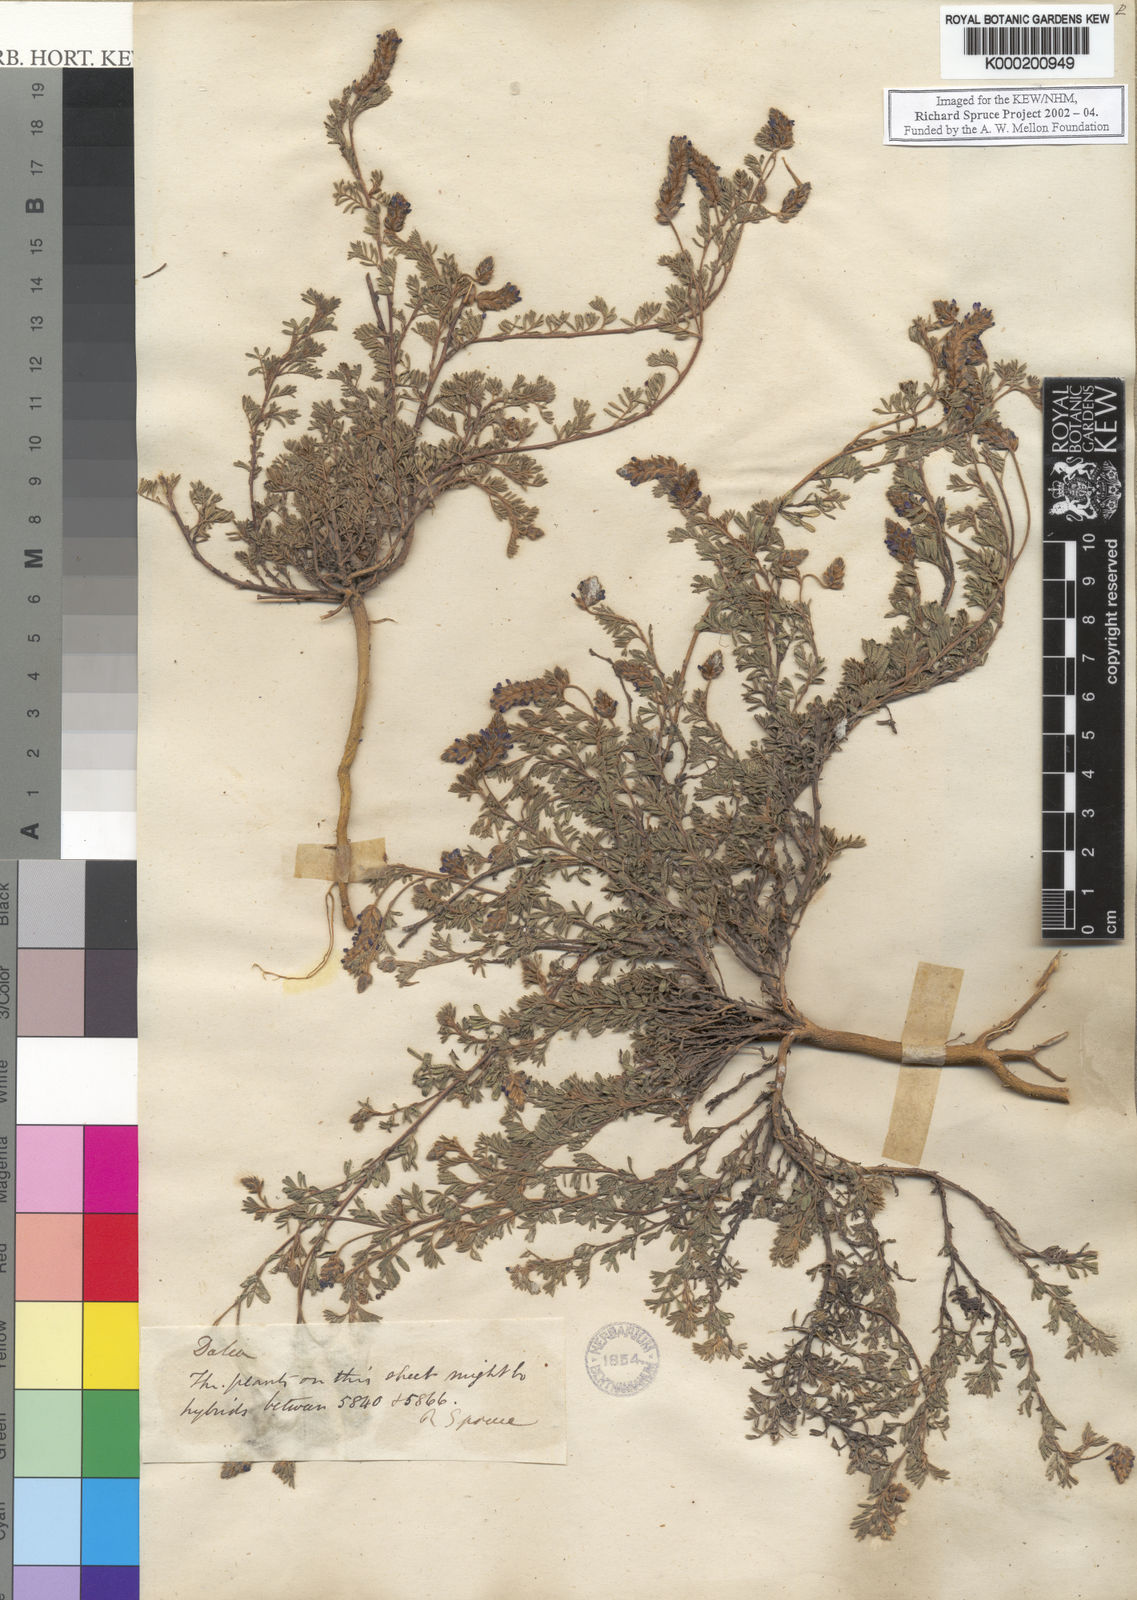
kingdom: Plantae
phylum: Tracheophyta
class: Magnoliopsida
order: Fabales
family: Fabaceae
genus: Dalea
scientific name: Dalea humifusa
